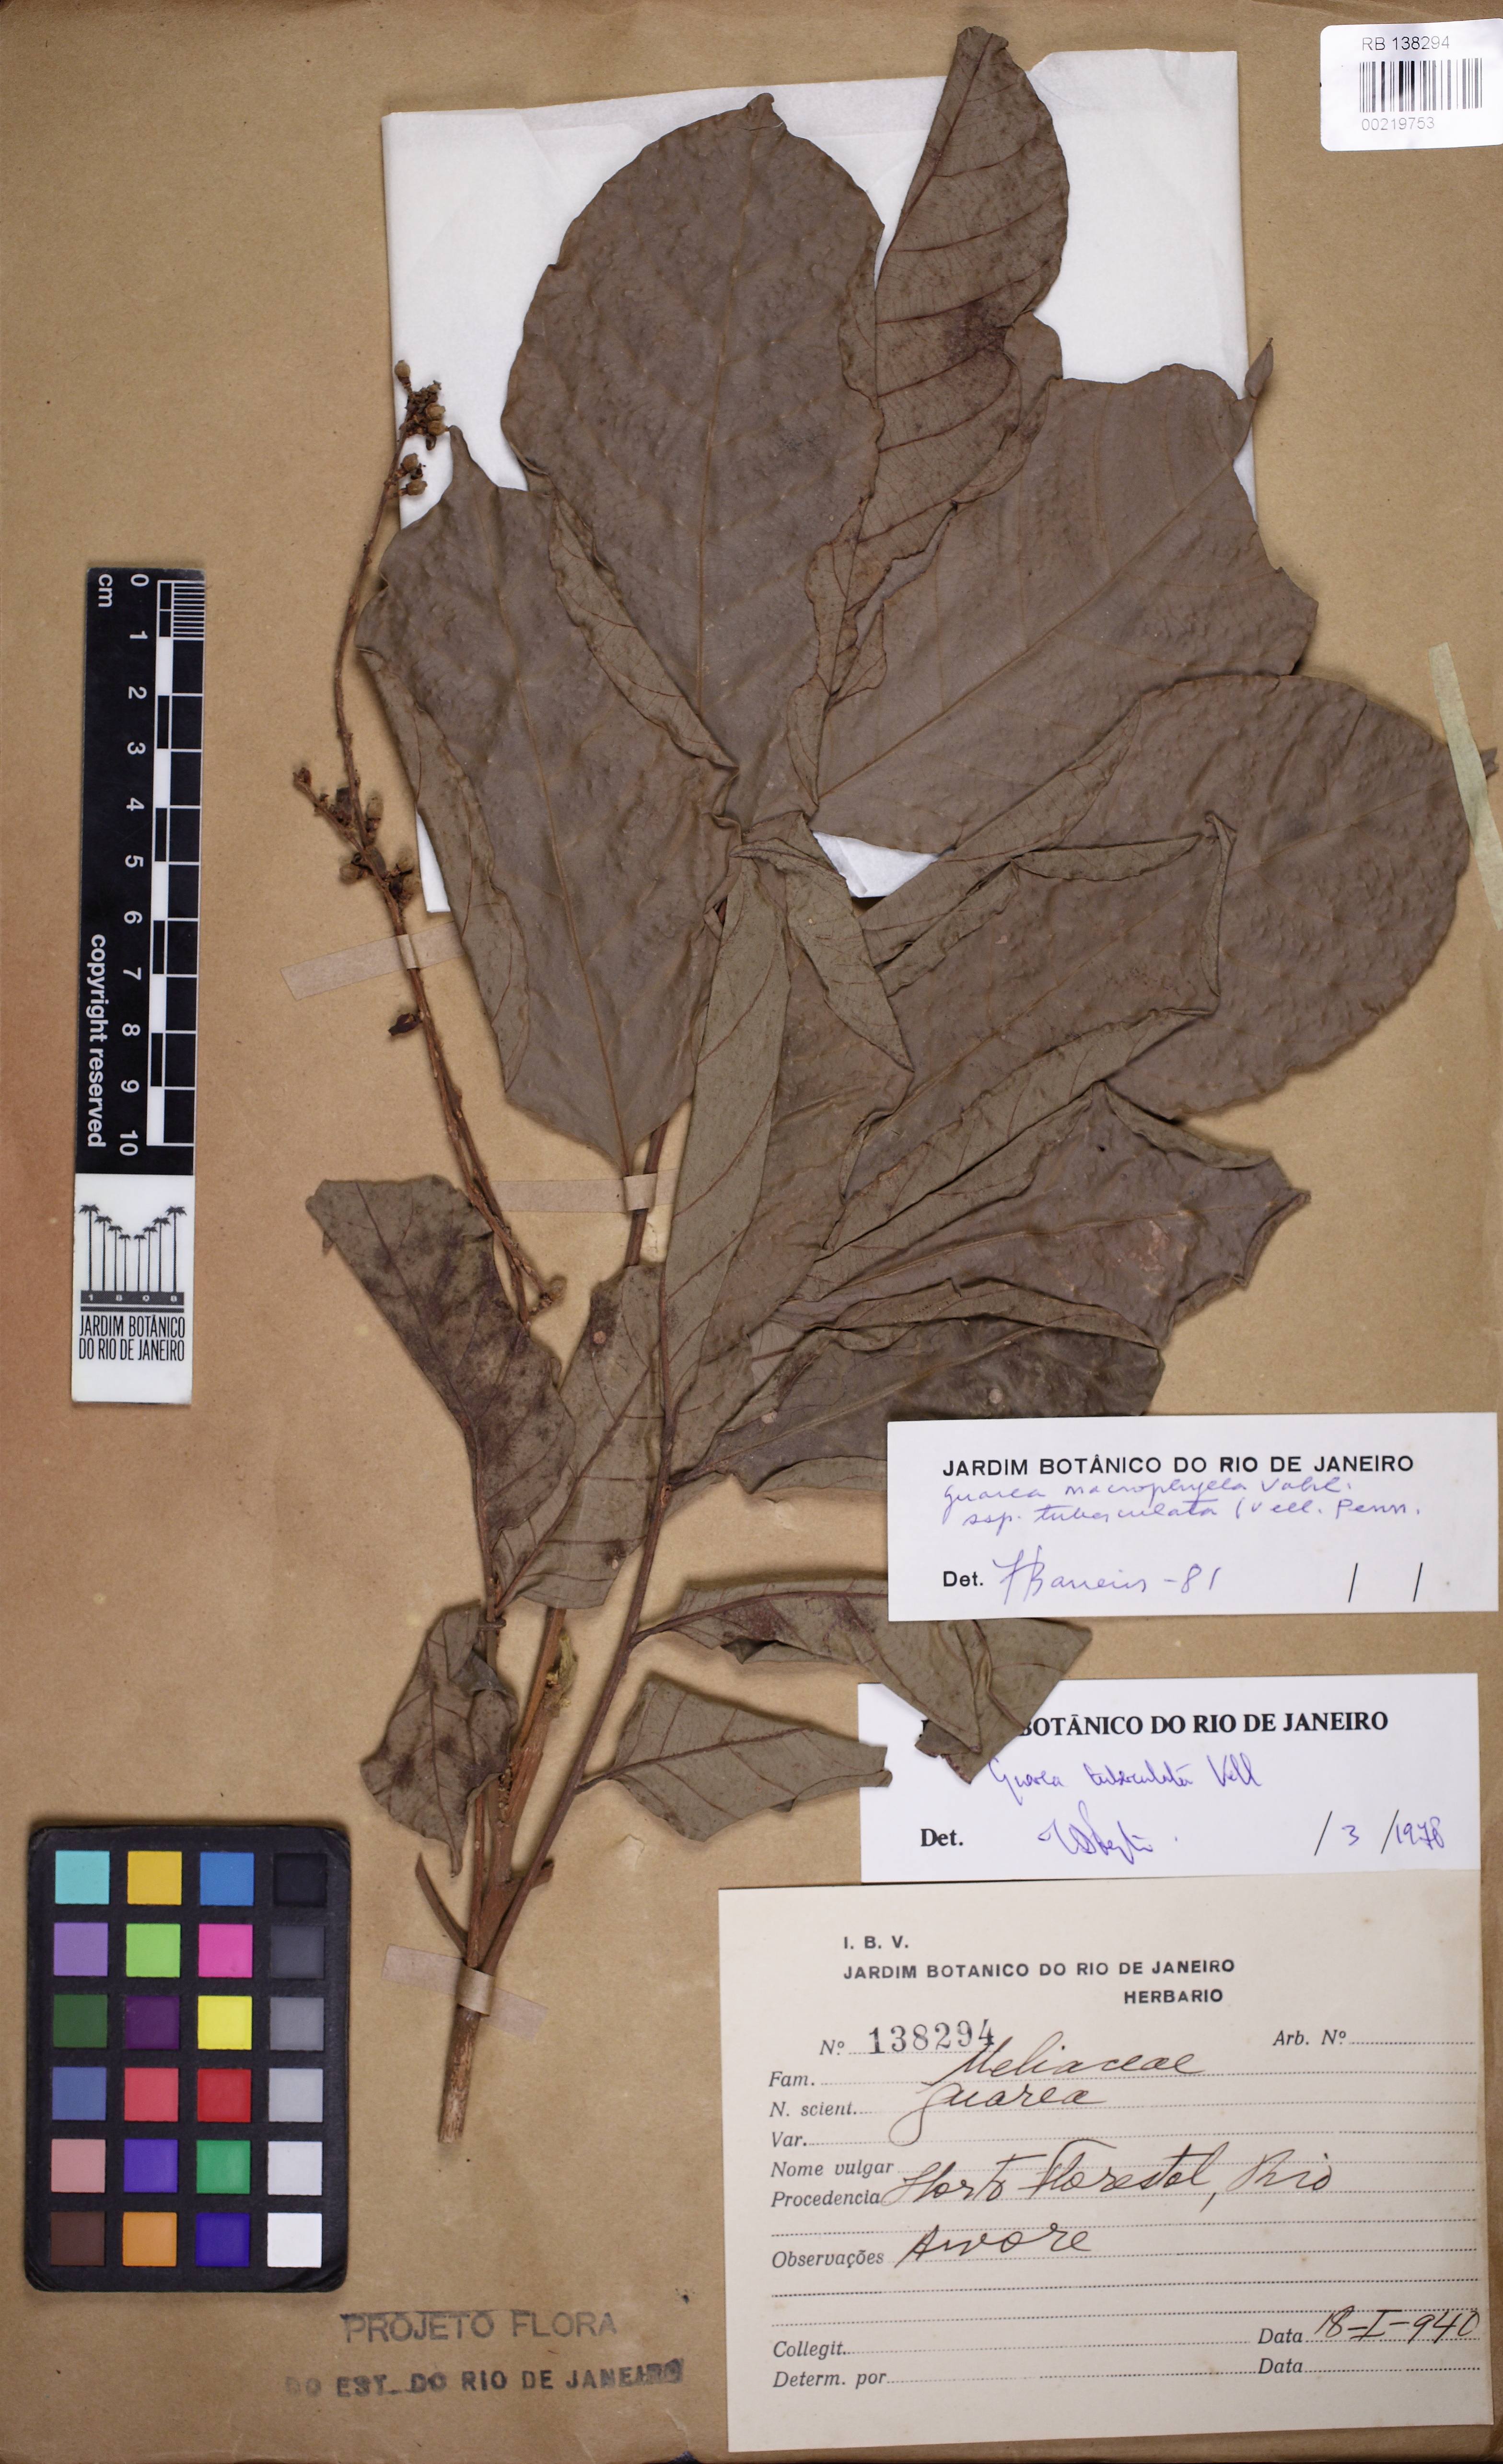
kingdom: Plantae
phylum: Tracheophyta
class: Magnoliopsida
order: Sapindales
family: Meliaceae
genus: Guarea
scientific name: Guarea macrophylla
